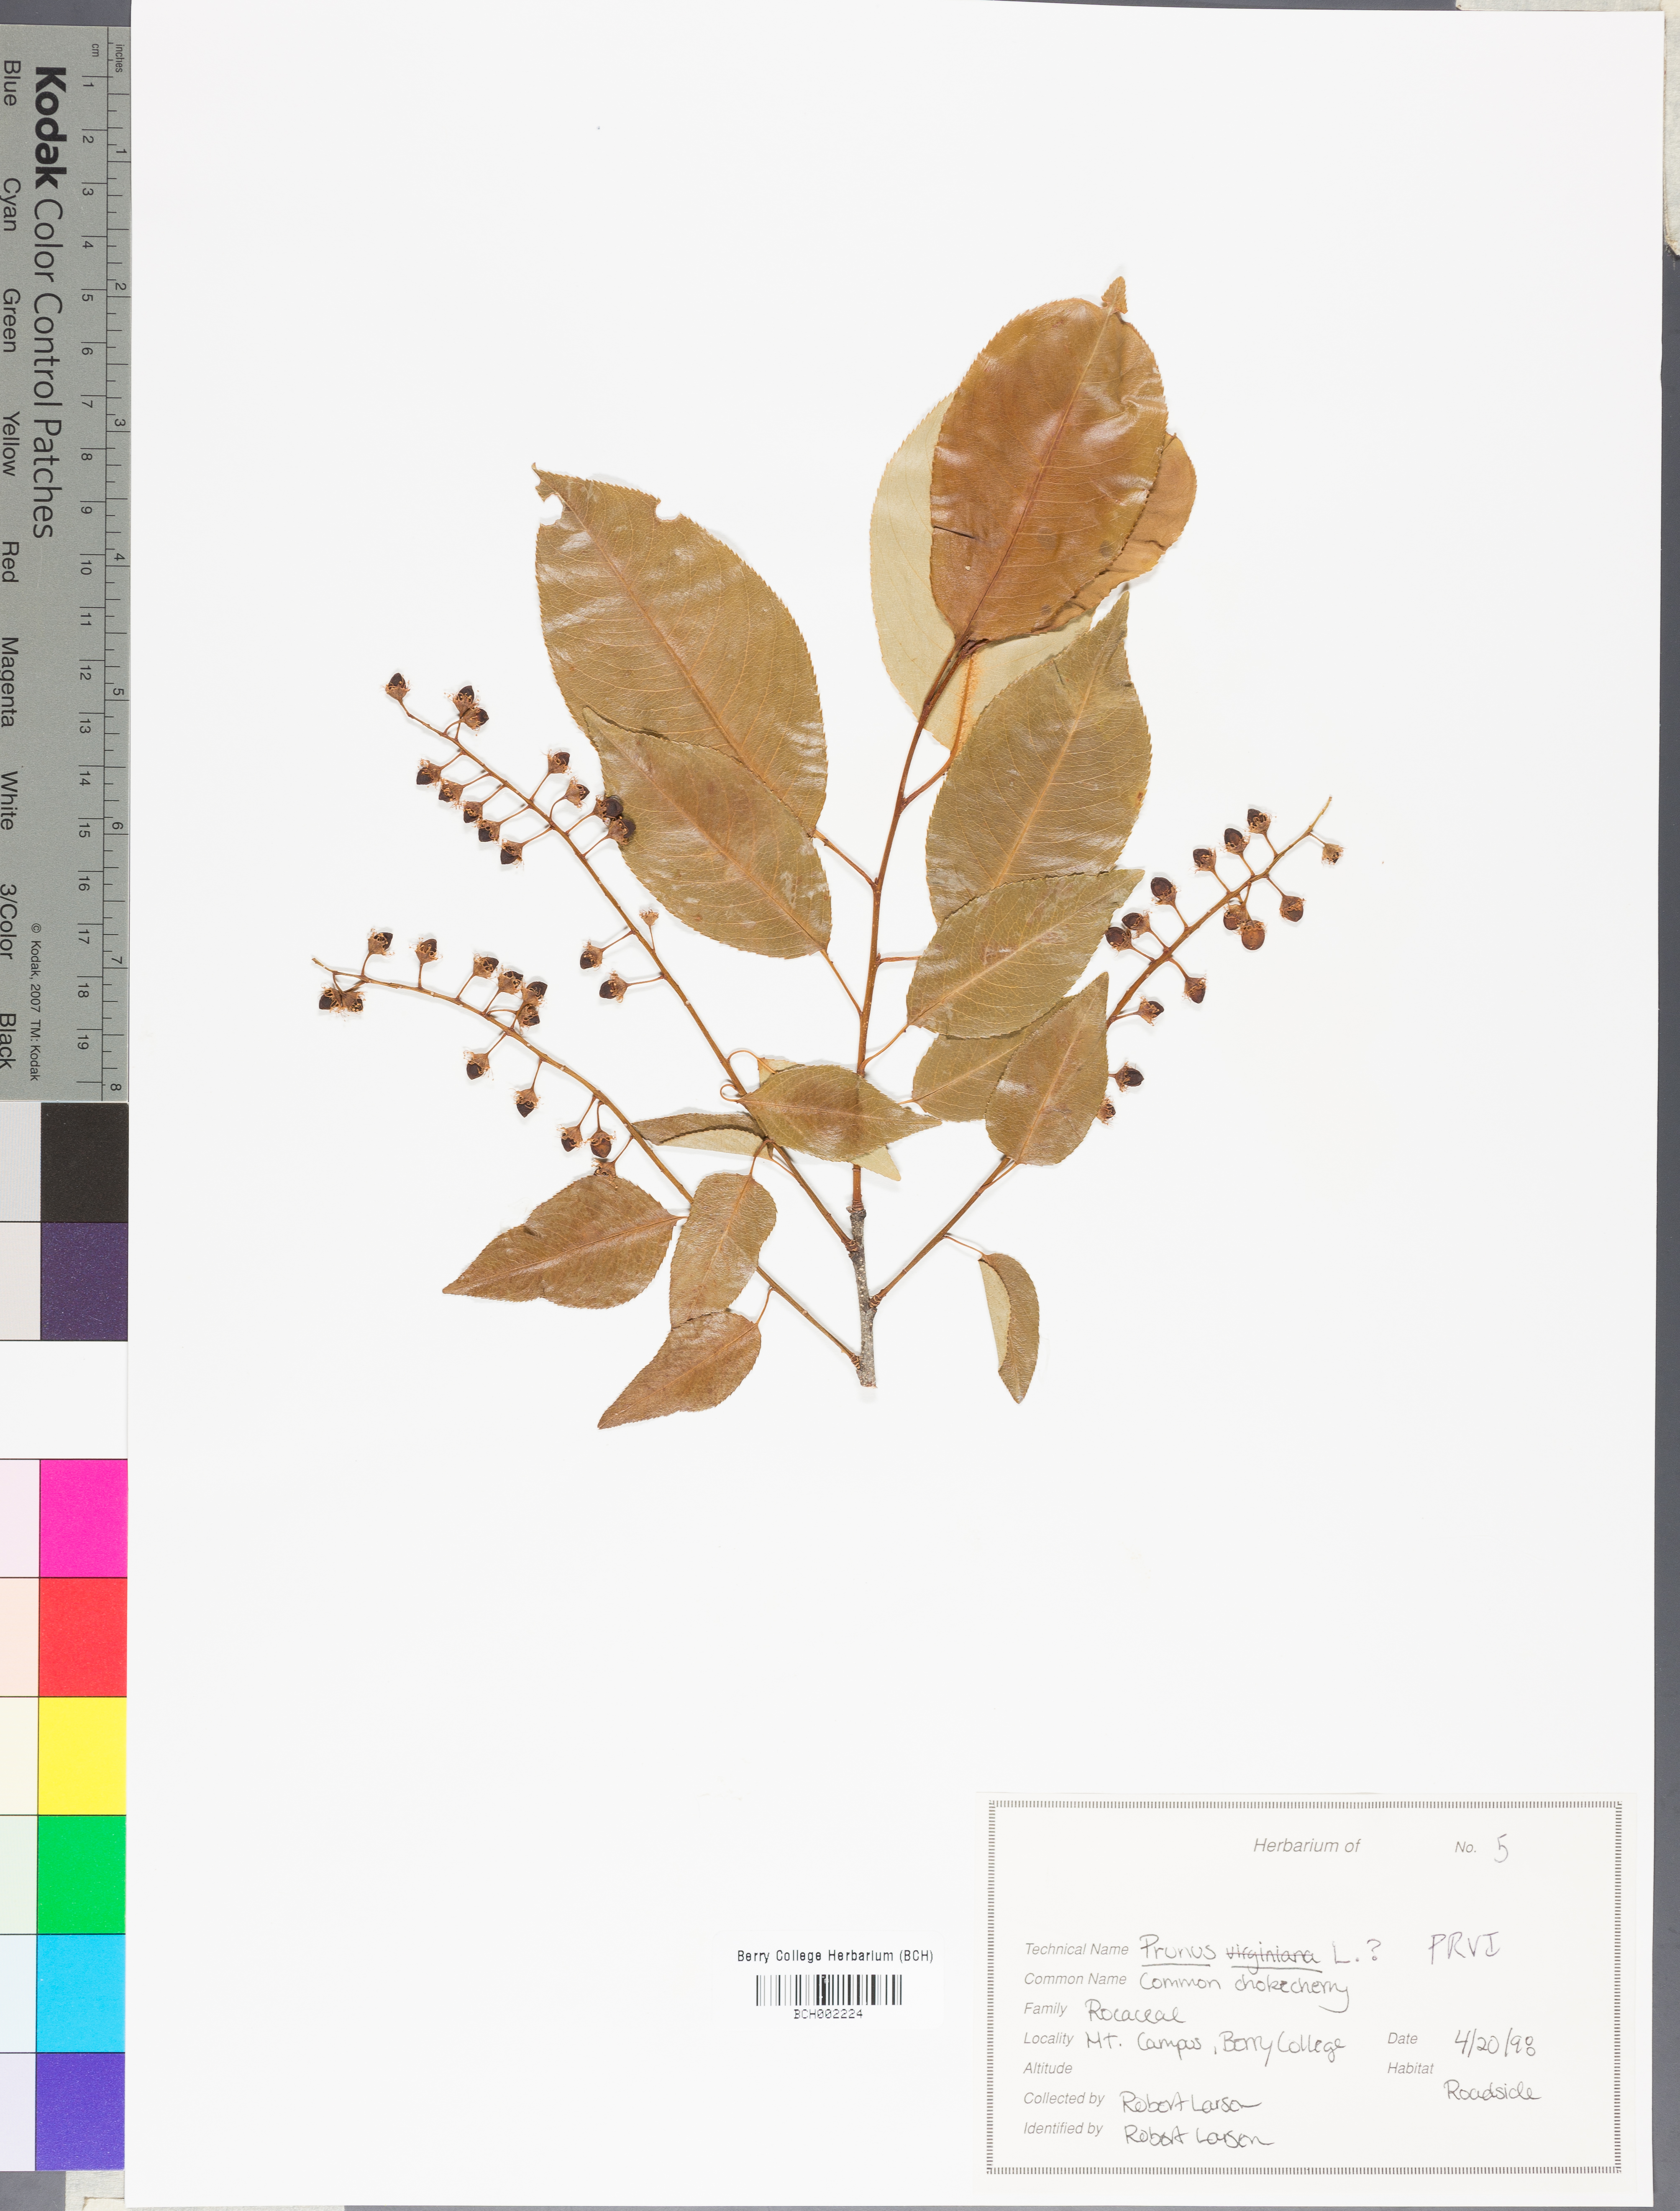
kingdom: Plantae
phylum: Tracheophyta
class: Magnoliopsida
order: Rosales
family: Rosaceae
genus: Prunus
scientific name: Prunus virginiana
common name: Chokecherry
